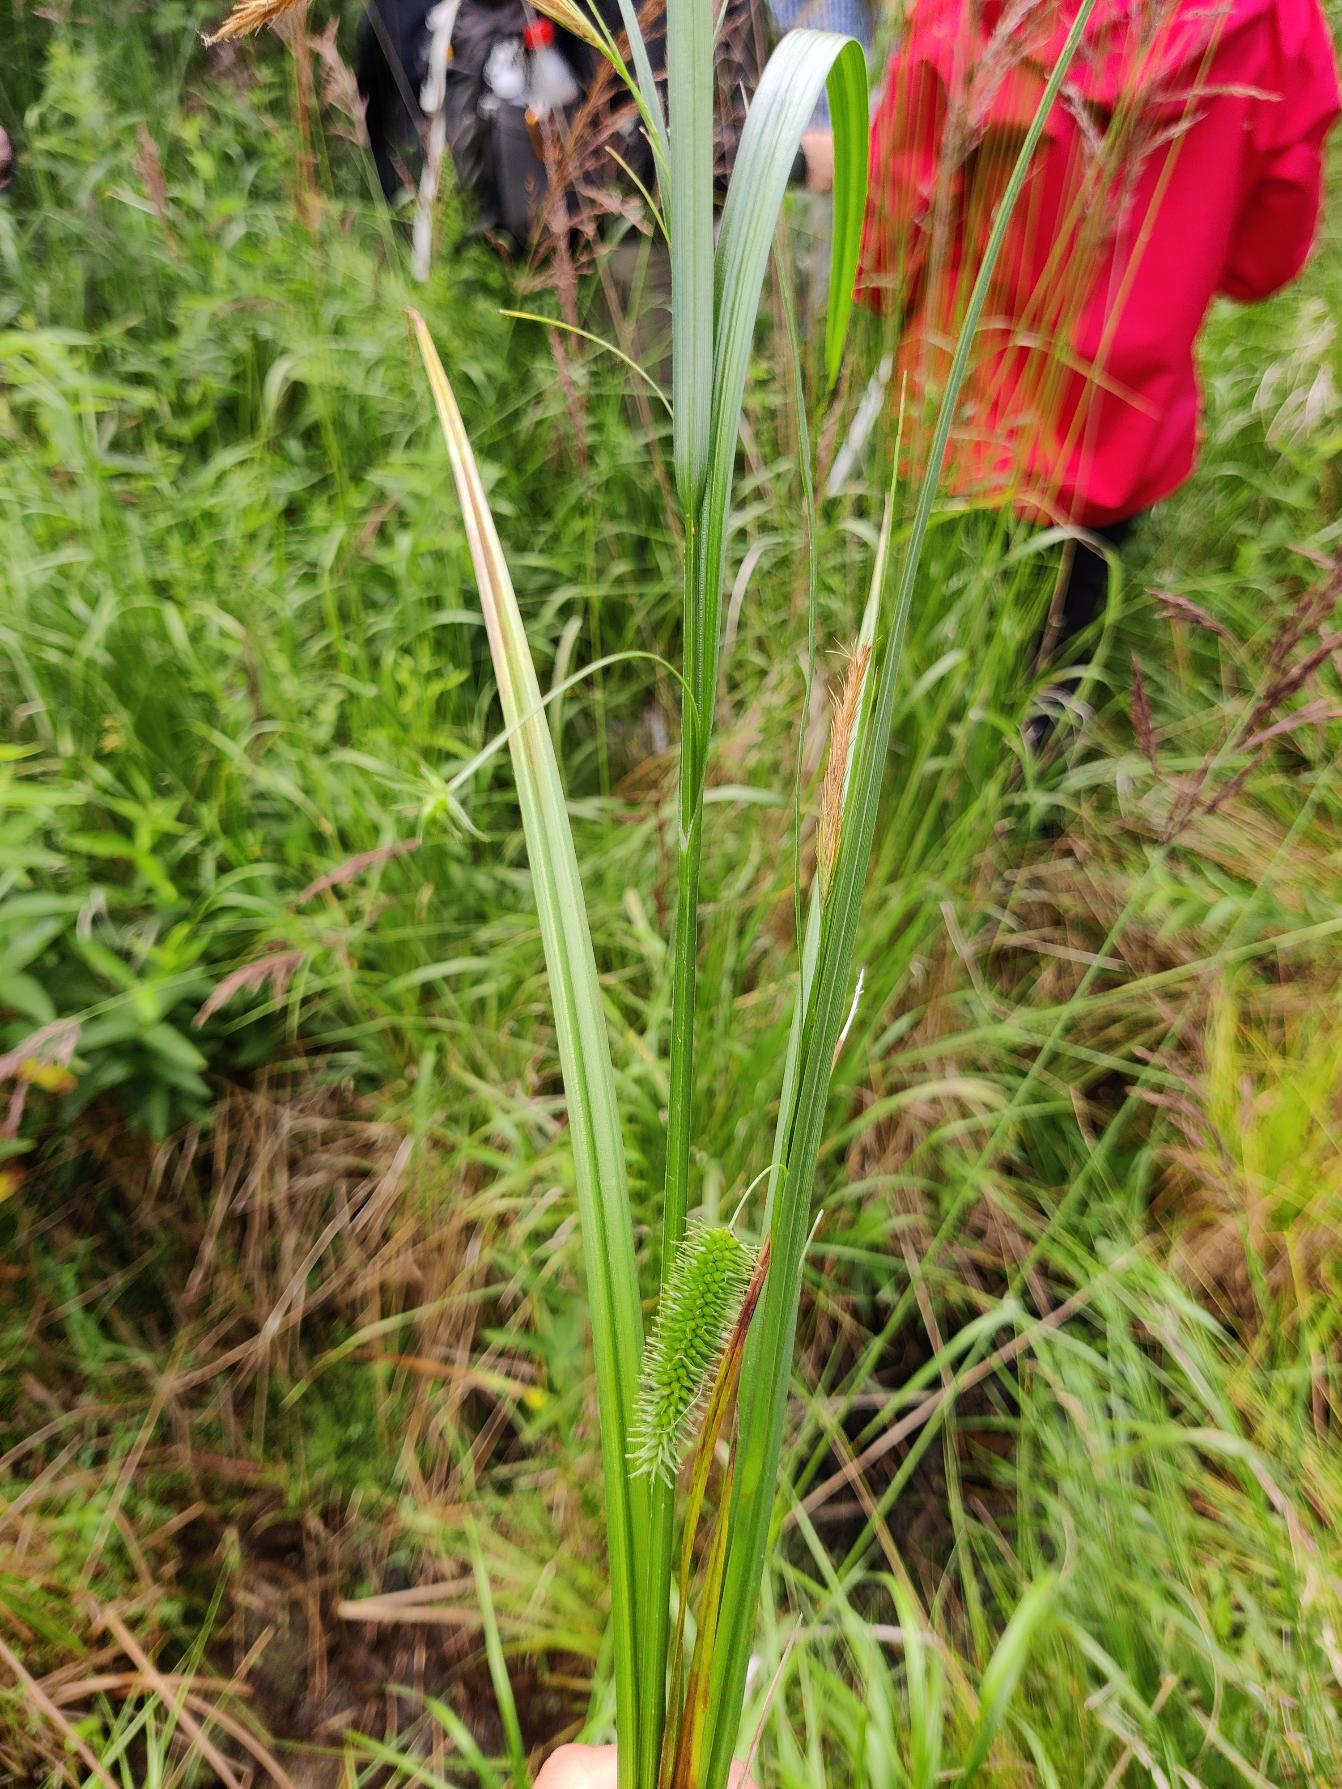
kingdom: Plantae
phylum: Tracheophyta
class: Liliopsida
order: Poales
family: Cyperaceae
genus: Carex
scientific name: Carex pseudocyperus
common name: Knippe-star
